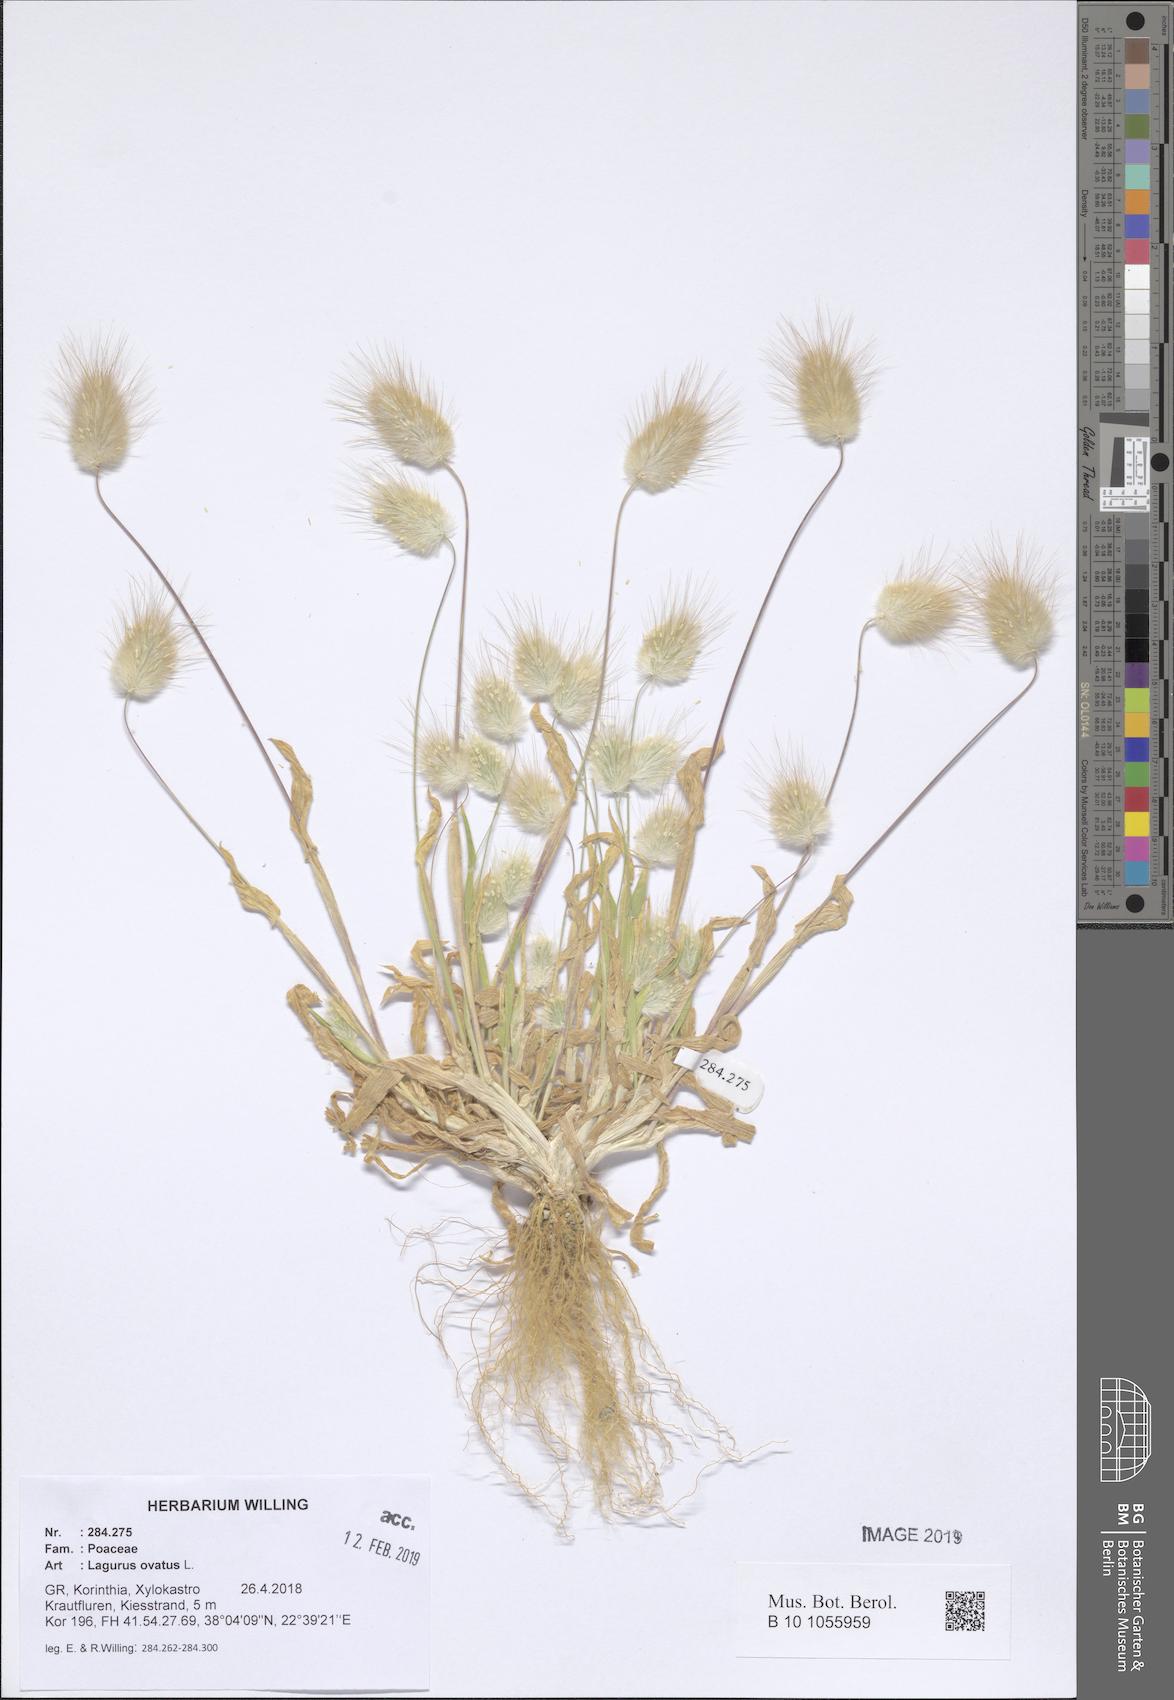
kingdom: Plantae
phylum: Tracheophyta
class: Liliopsida
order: Poales
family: Poaceae
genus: Lagurus
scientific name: Lagurus ovatus
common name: Hare's-tail
